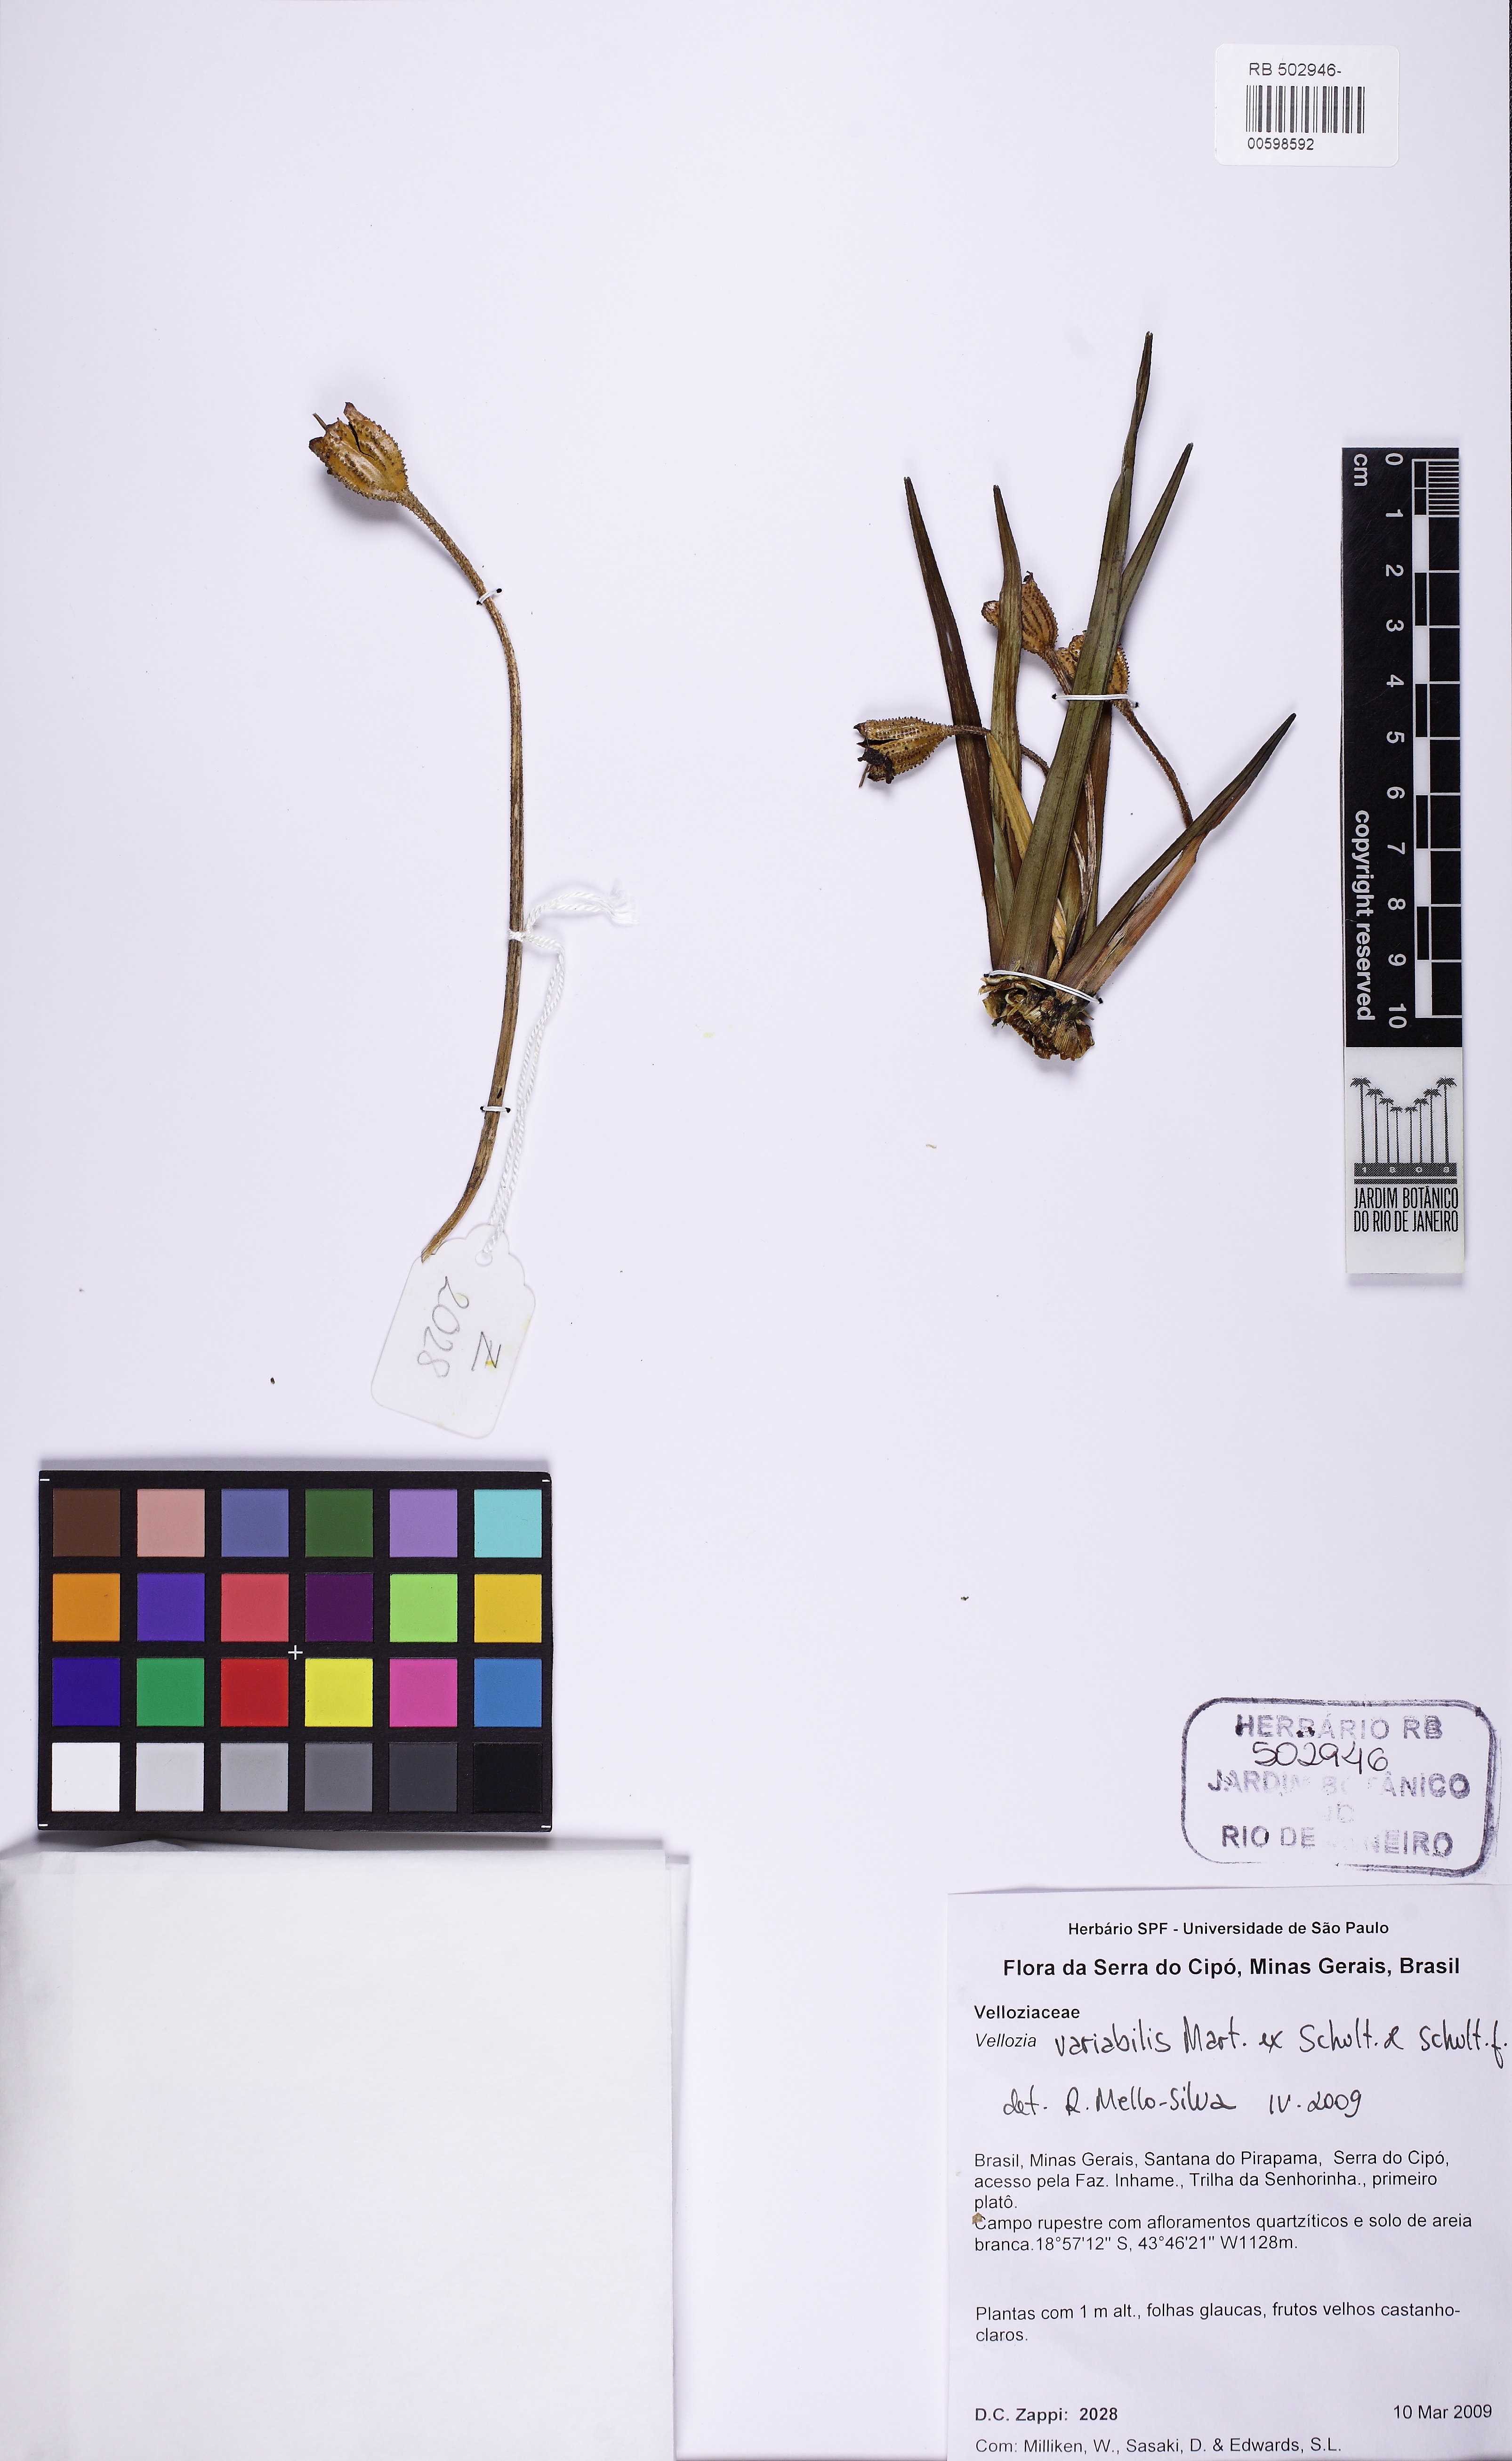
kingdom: Plantae
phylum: Tracheophyta
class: Liliopsida
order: Pandanales
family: Velloziaceae
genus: Vellozia
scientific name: Vellozia variabilis
